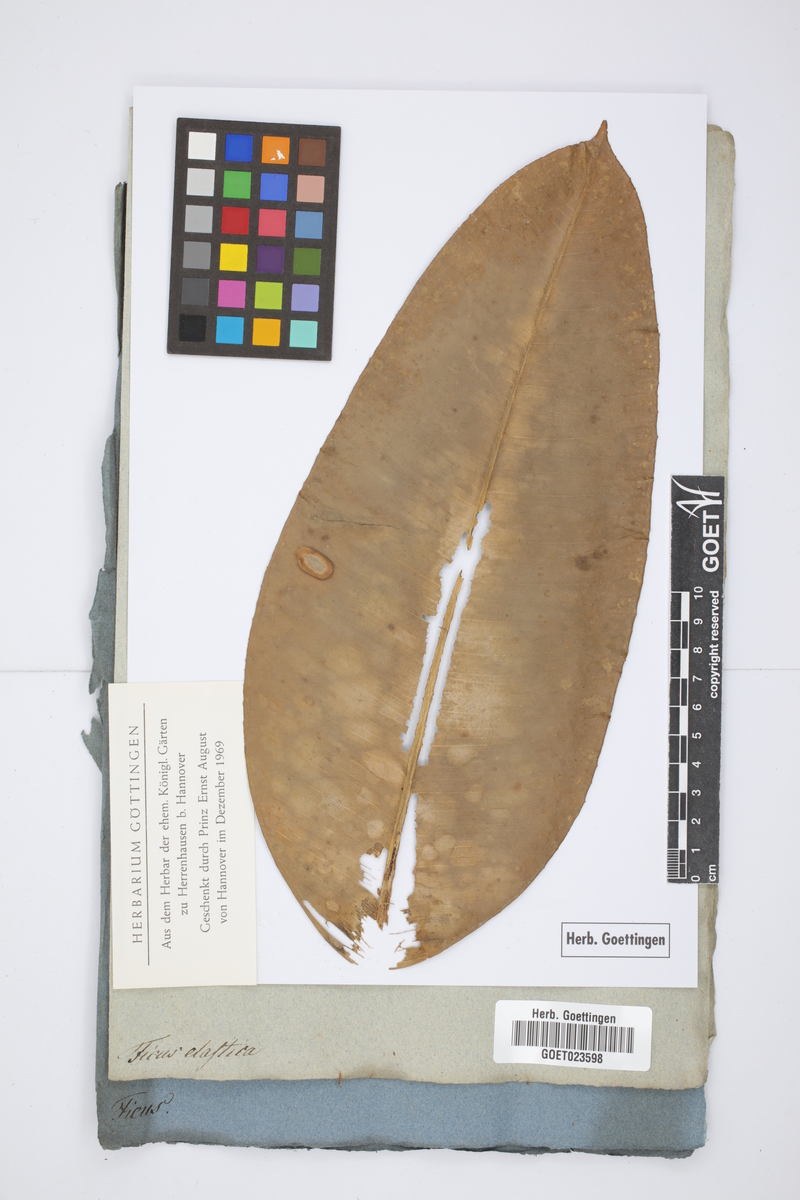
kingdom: Plantae
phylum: Tracheophyta
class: Magnoliopsida
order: Rosales
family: Moraceae
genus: Ficus
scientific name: Ficus elastica
